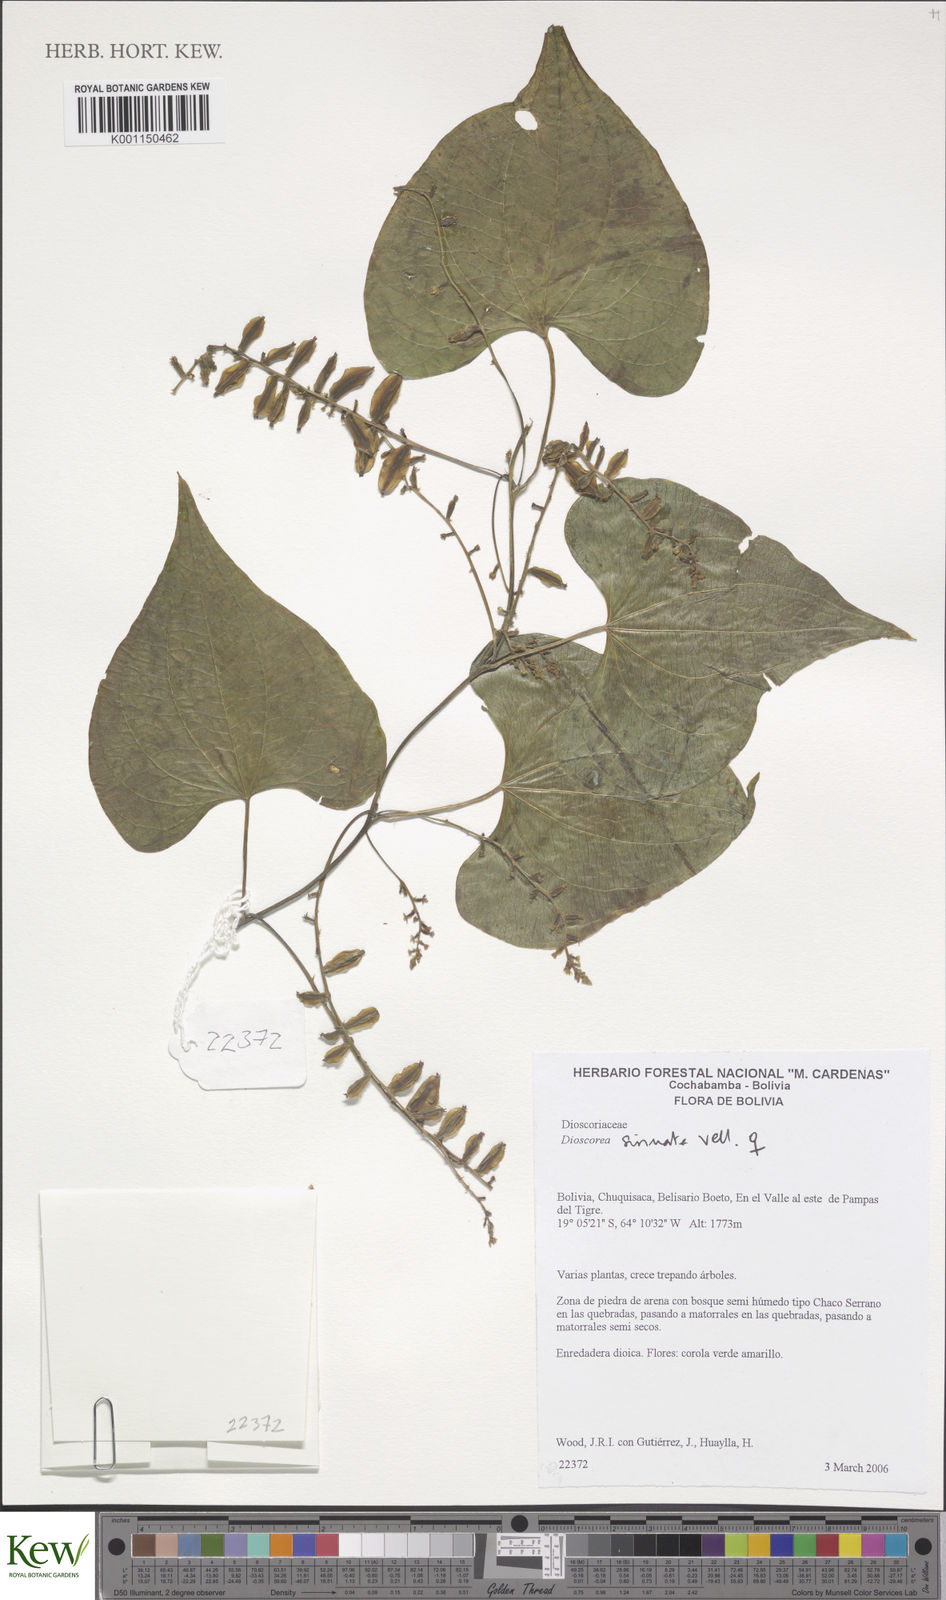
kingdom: Plantae
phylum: Tracheophyta
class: Liliopsida
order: Dioscoreales
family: Dioscoreaceae
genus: Dioscorea
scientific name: Dioscorea
